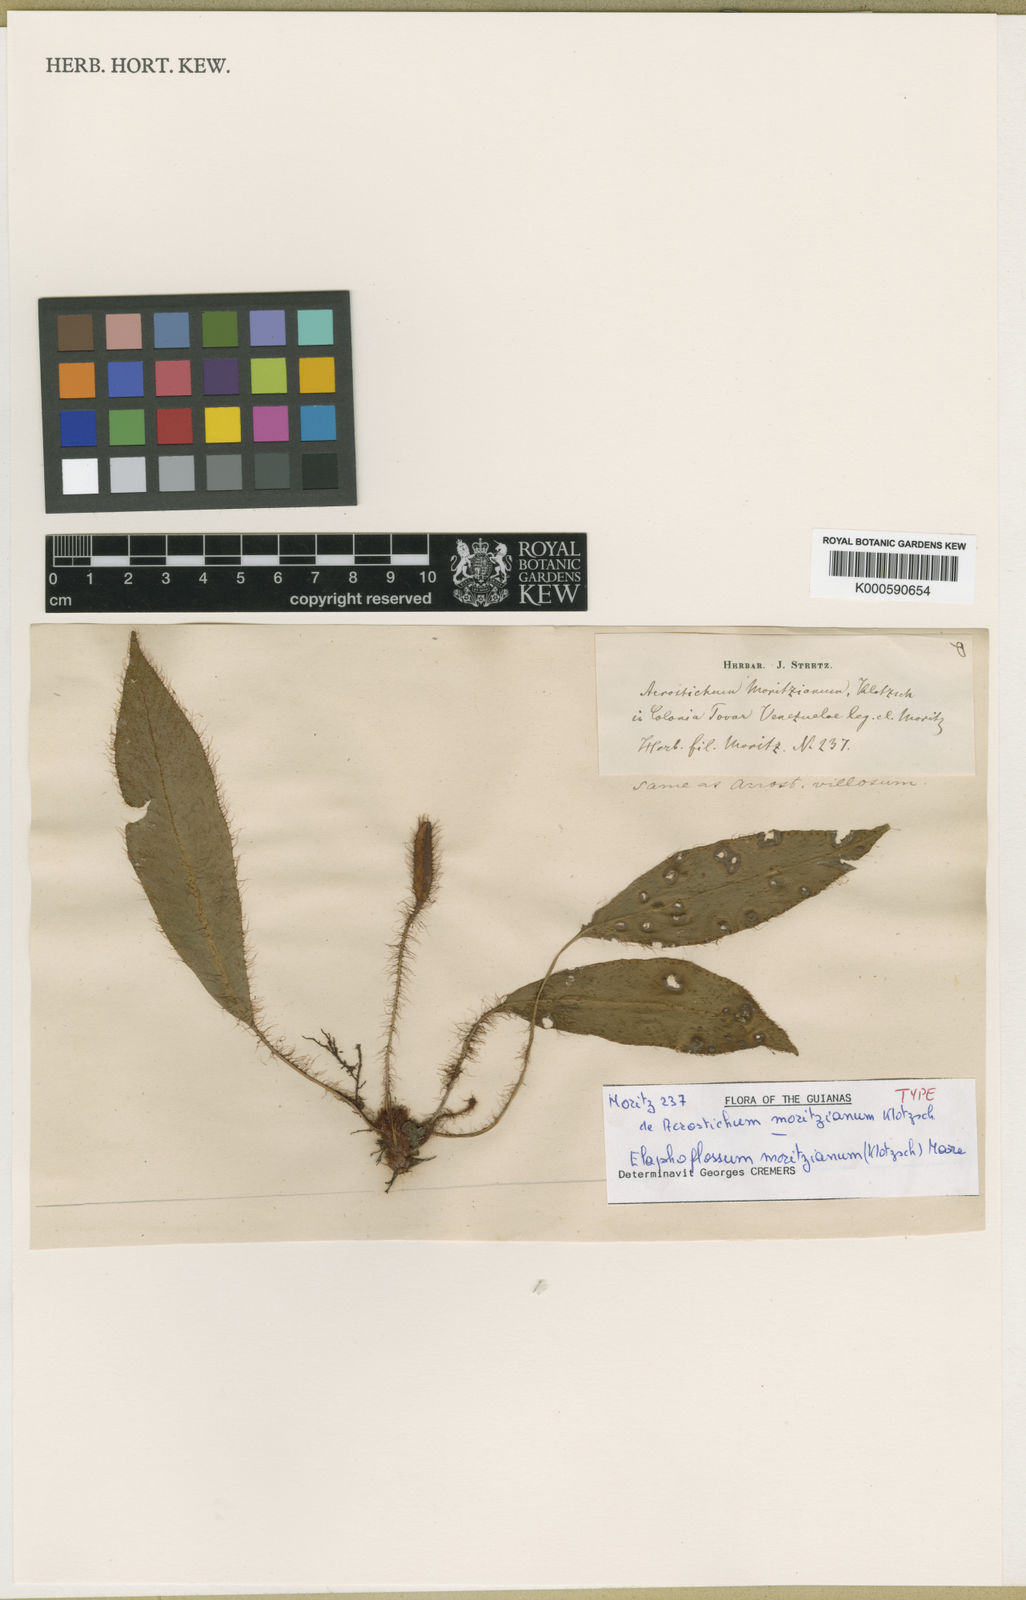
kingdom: Plantae
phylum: Tracheophyta
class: Polypodiopsida
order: Polypodiales
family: Dryopteridaceae
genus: Elaphoglossum
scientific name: Elaphoglossum moritzianum
